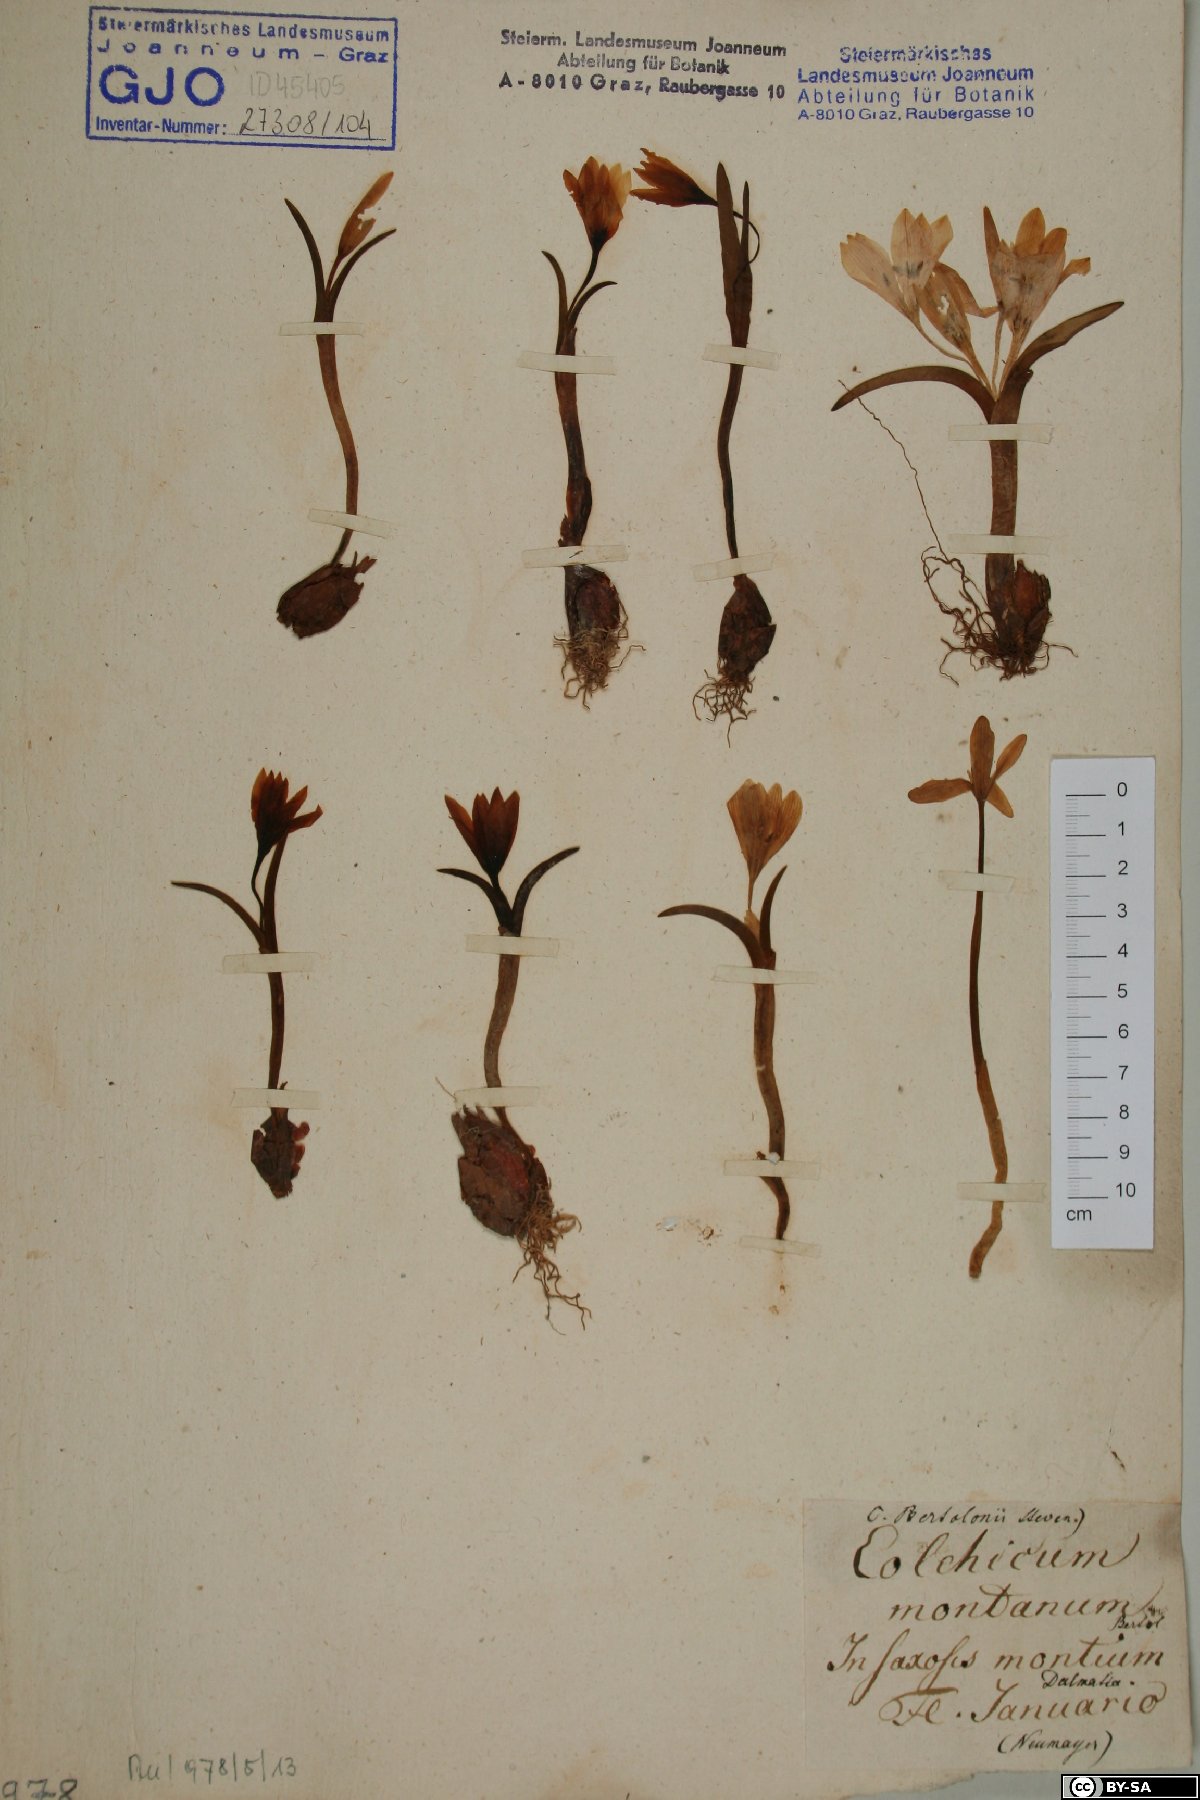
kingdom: Plantae
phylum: Tracheophyta
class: Liliopsida
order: Liliales
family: Colchicaceae
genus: Colchicum
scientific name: Colchicum cupanii
